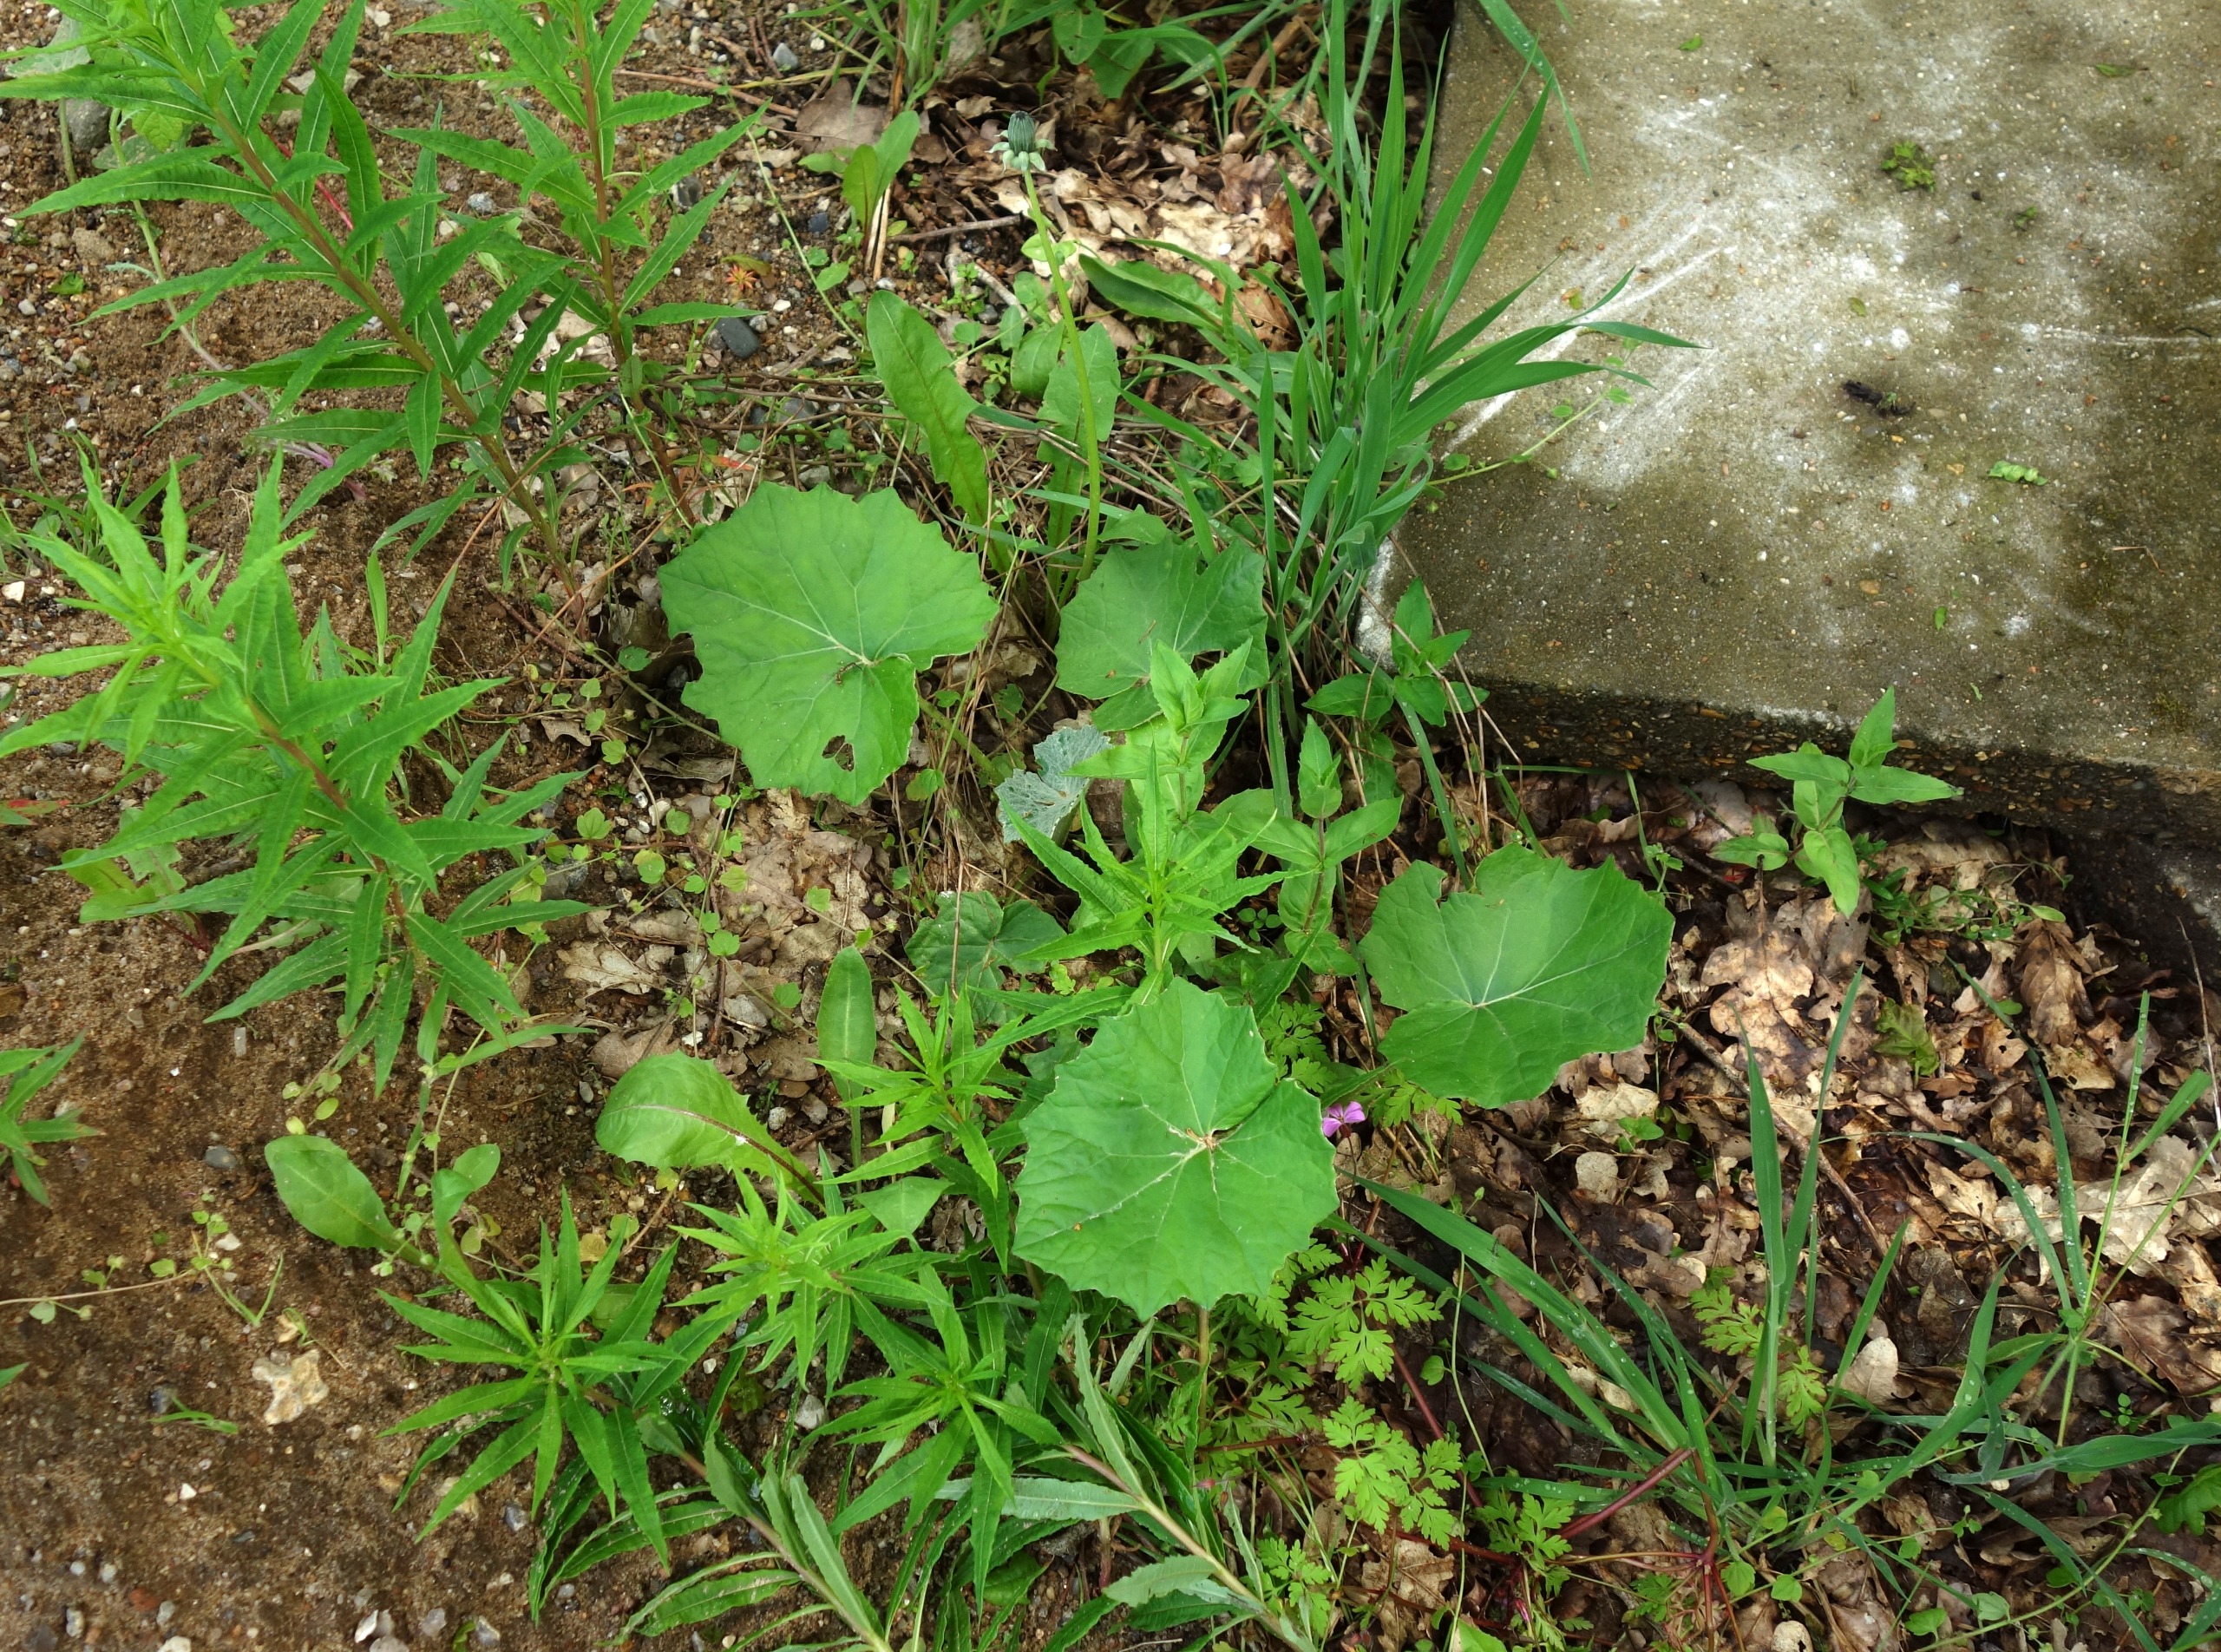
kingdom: Plantae
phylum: Tracheophyta
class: Magnoliopsida
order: Asterales
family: Asteraceae
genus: Tussilago
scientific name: Tussilago farfara
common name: Følfod
